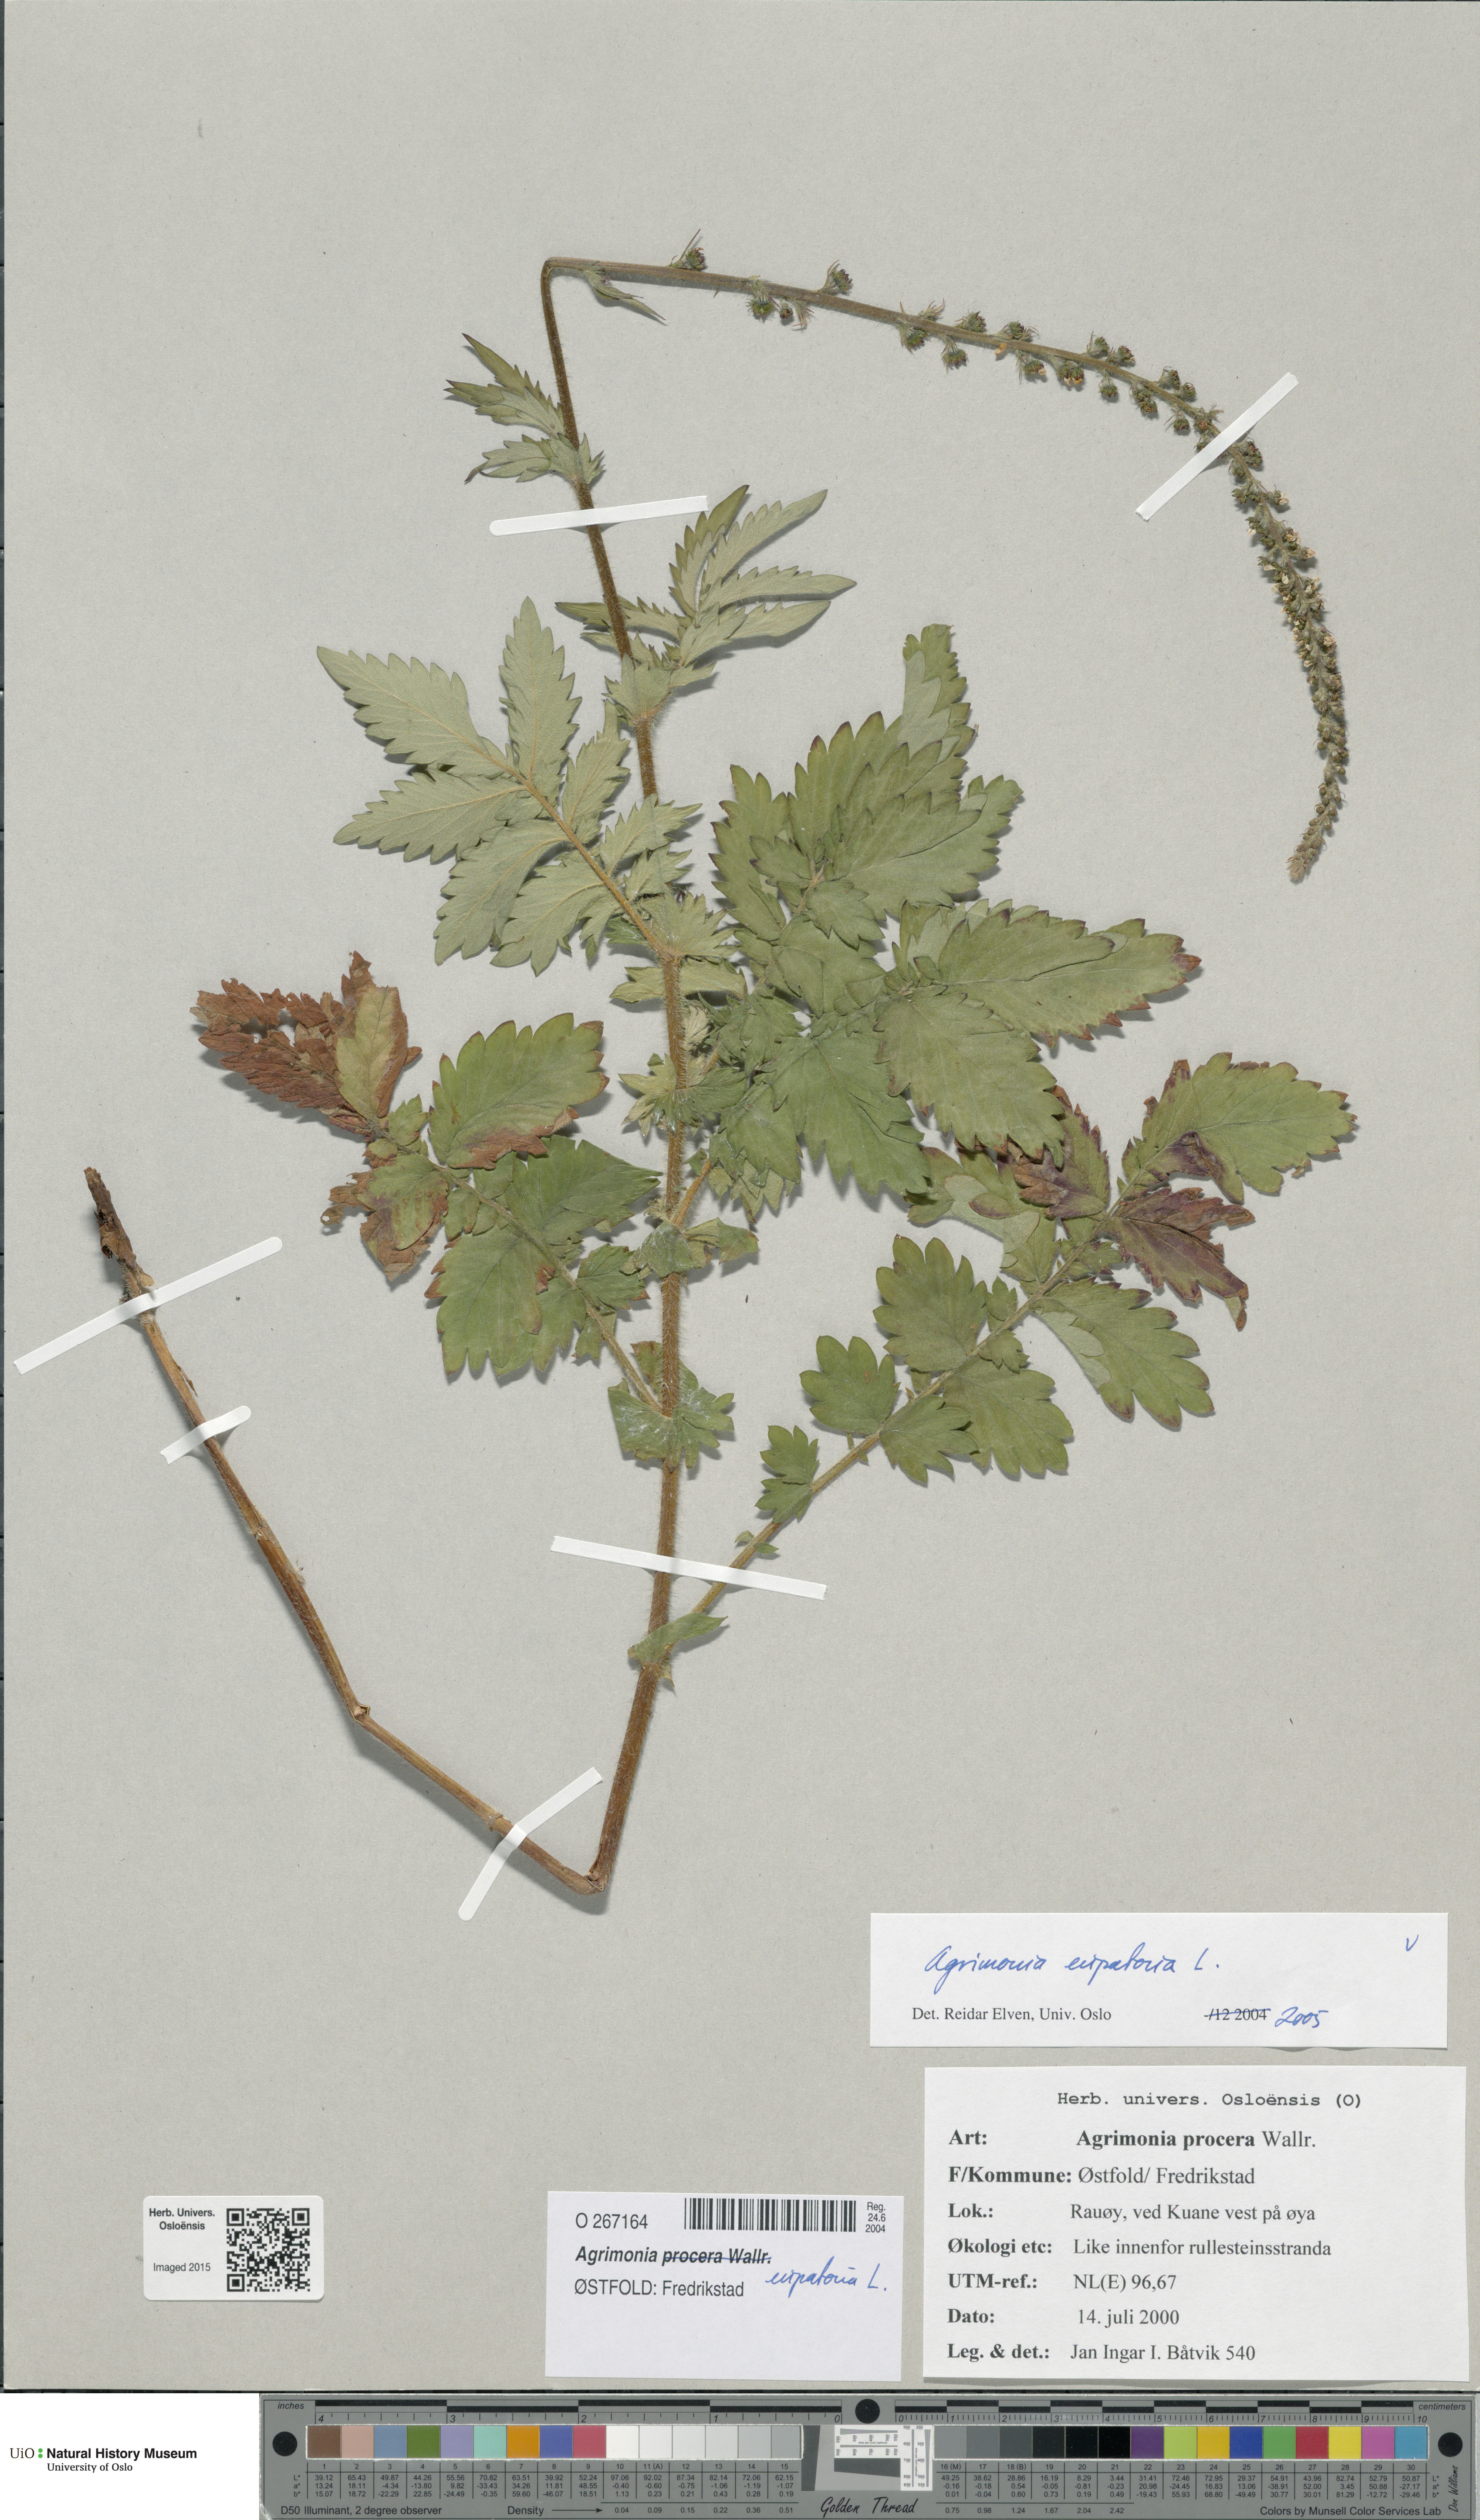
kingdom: Plantae
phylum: Tracheophyta
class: Magnoliopsida
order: Rosales
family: Rosaceae
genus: Agrimonia
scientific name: Agrimonia eupatoria
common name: Agrimony
